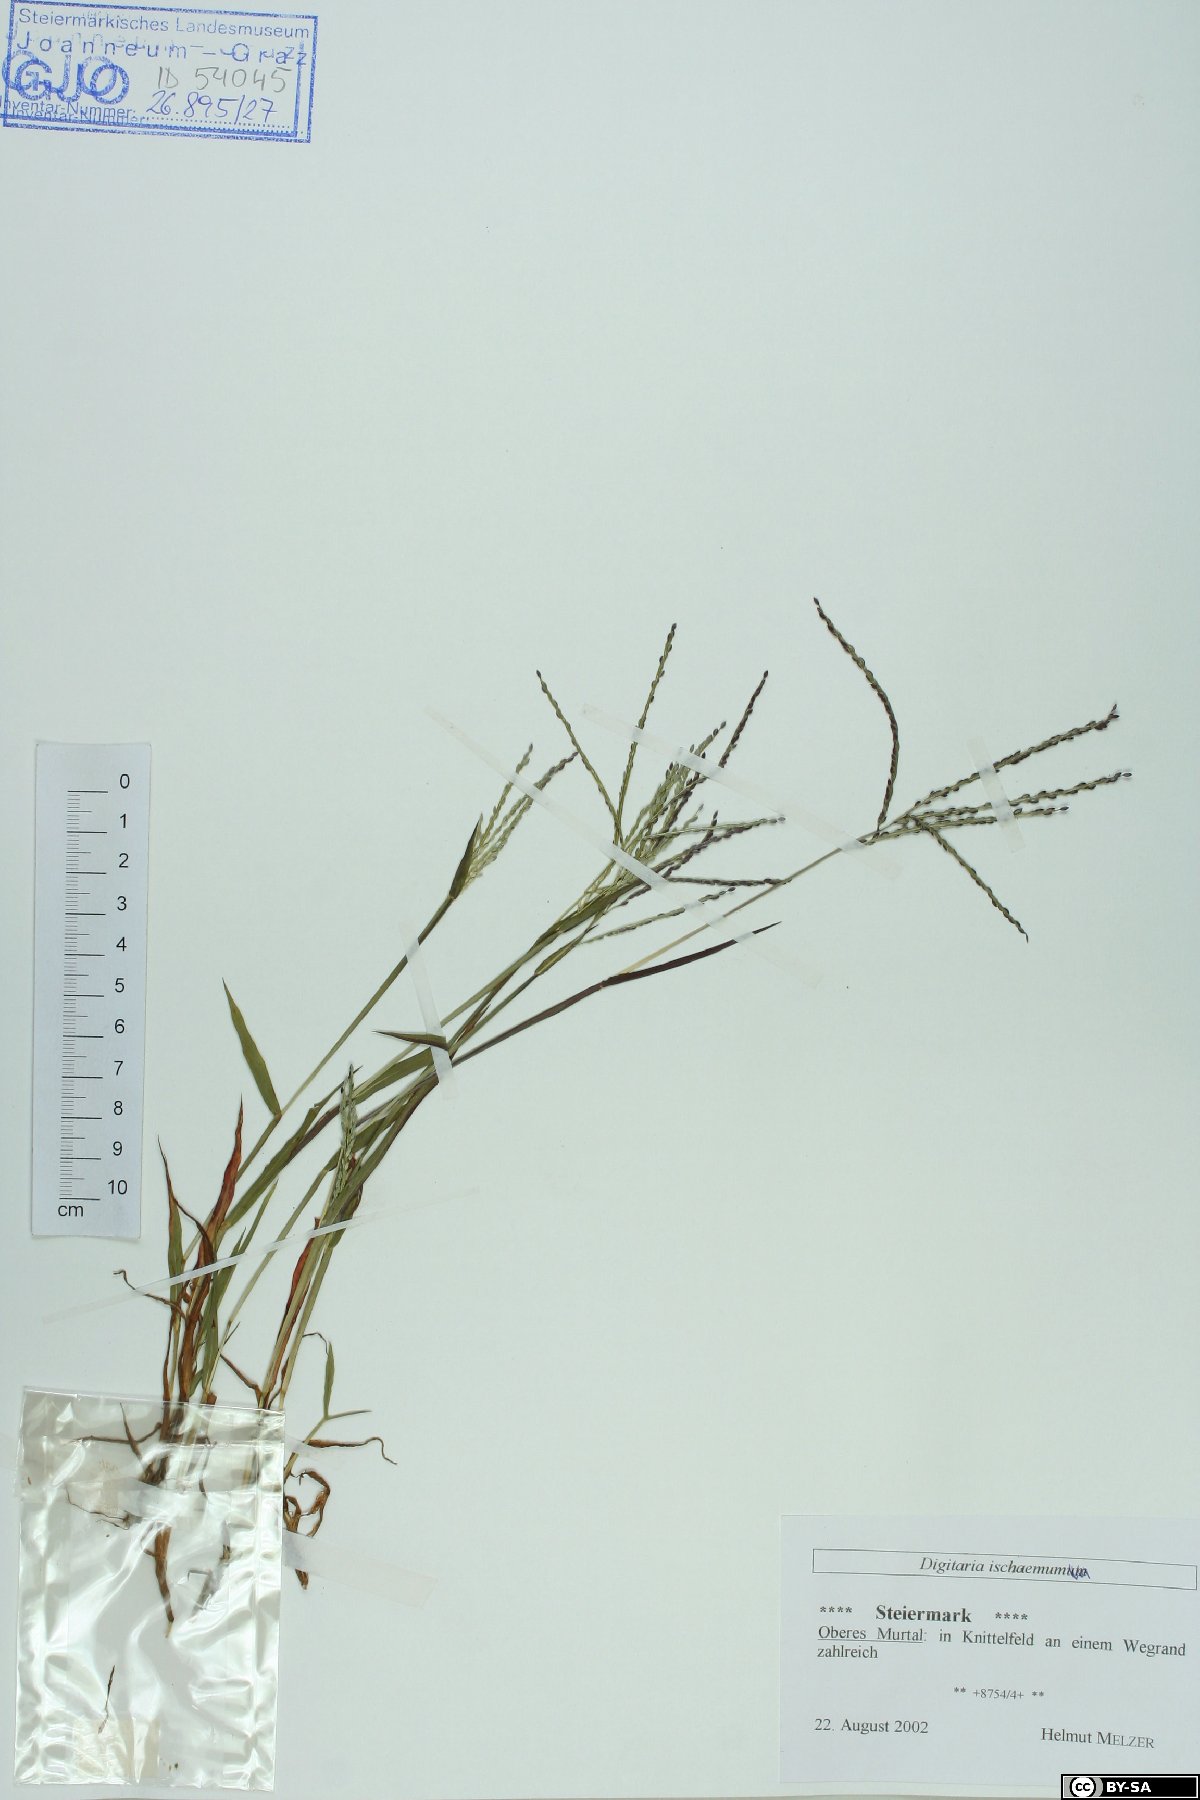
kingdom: Plantae
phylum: Tracheophyta
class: Liliopsida
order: Poales
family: Poaceae
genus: Digitaria
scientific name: Digitaria ischaemum
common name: Smooth crabgrass
